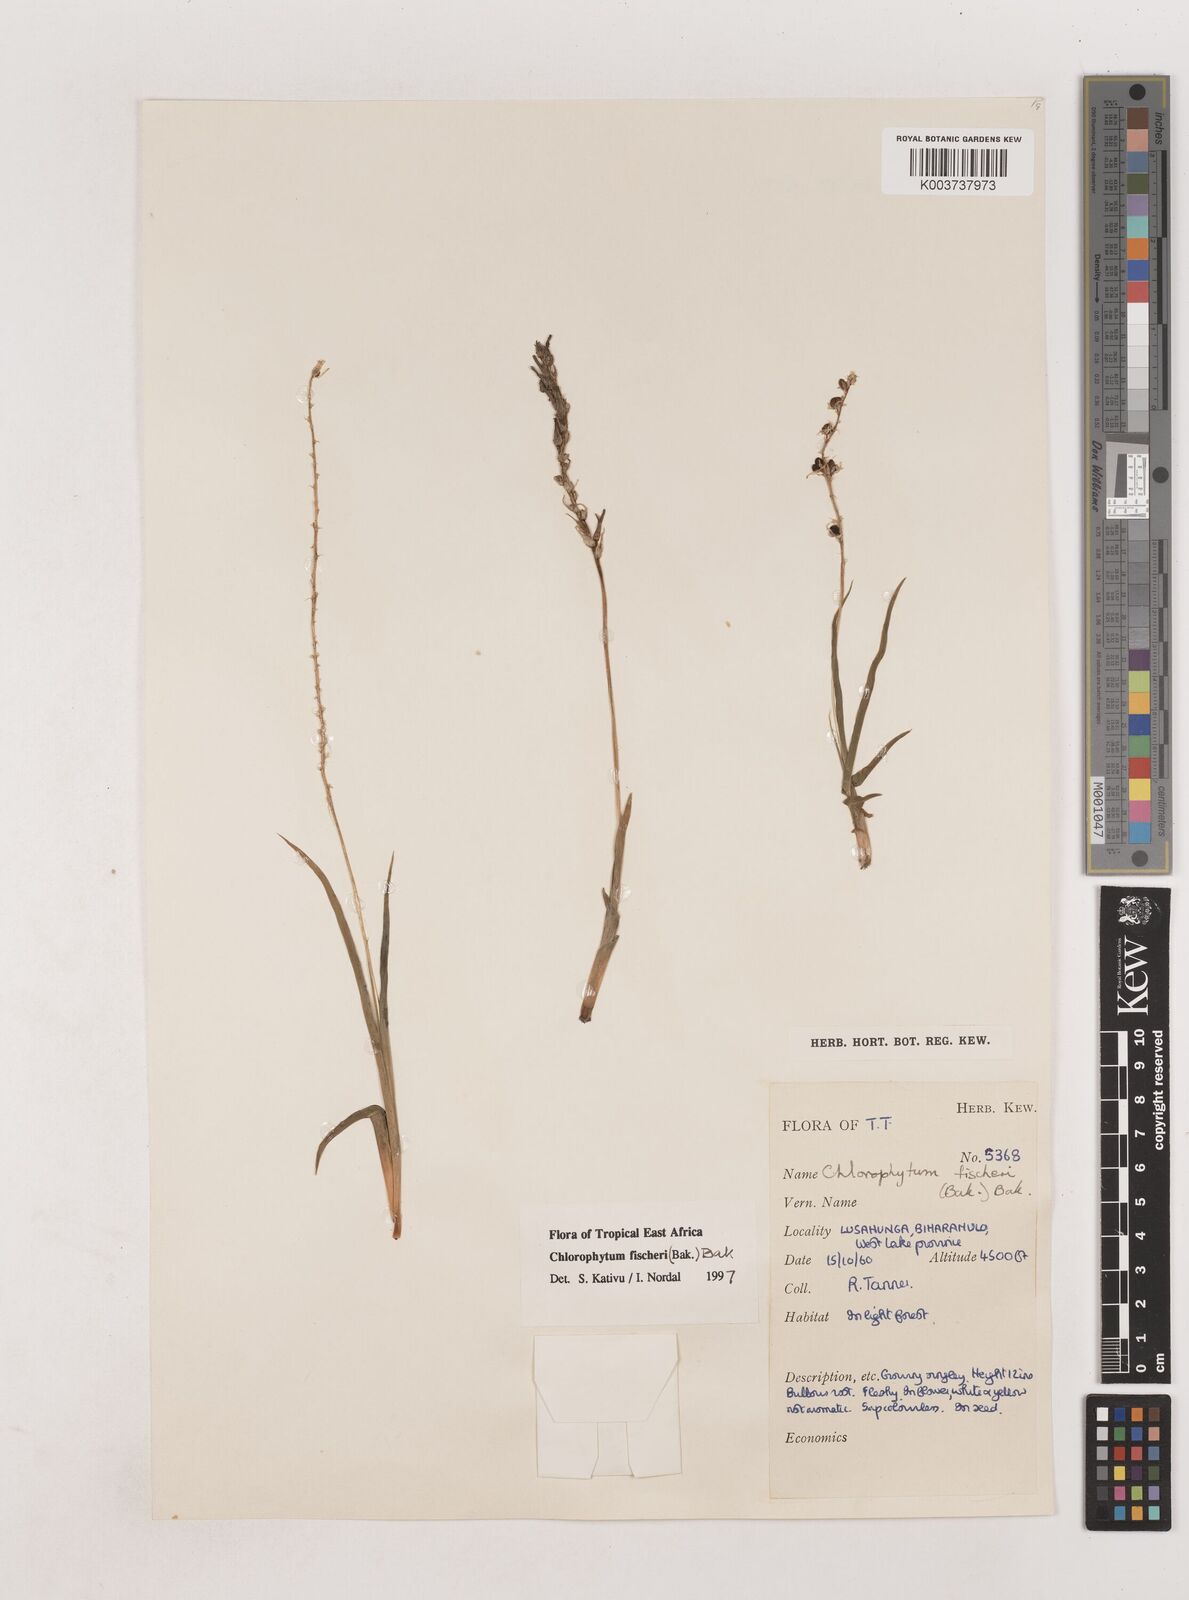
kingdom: Plantae
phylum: Tracheophyta
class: Liliopsida
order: Asparagales
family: Asparagaceae
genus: Chlorophytum
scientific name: Chlorophytum fischeri
